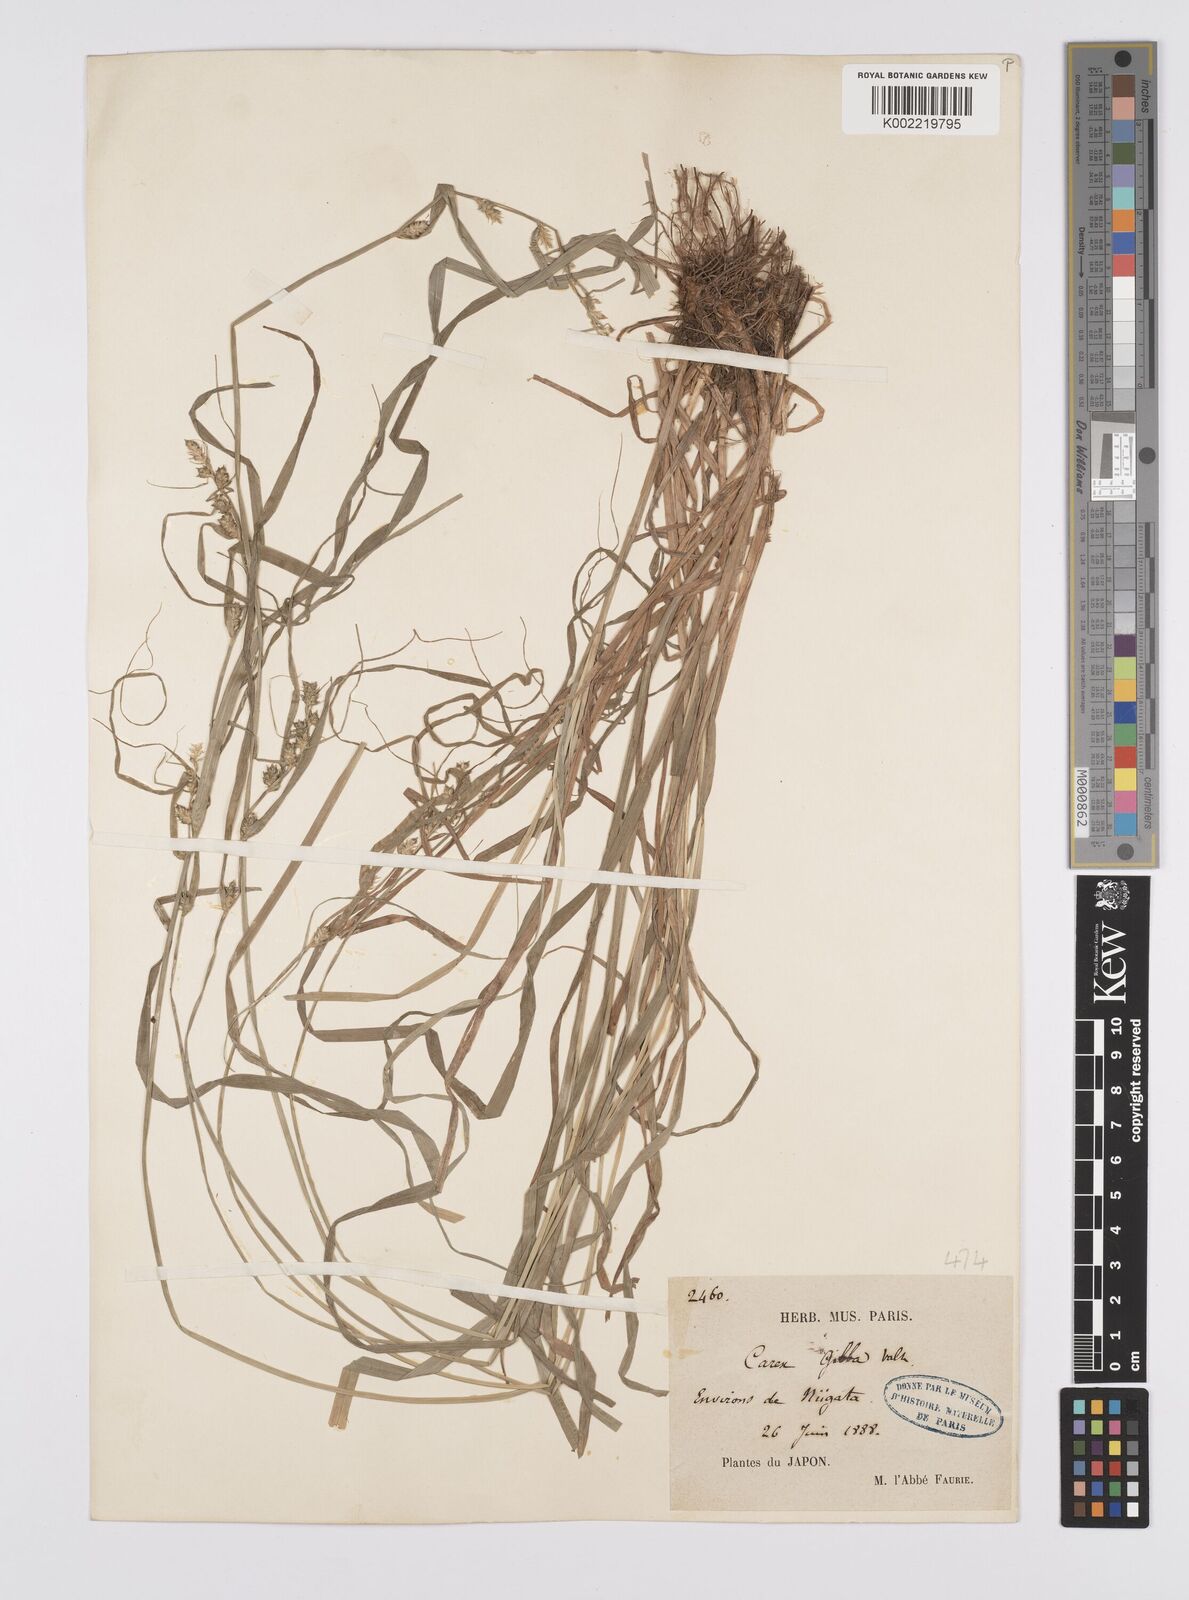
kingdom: Plantae
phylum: Tracheophyta
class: Liliopsida
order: Poales
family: Cyperaceae
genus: Carex
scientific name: Carex gibba
